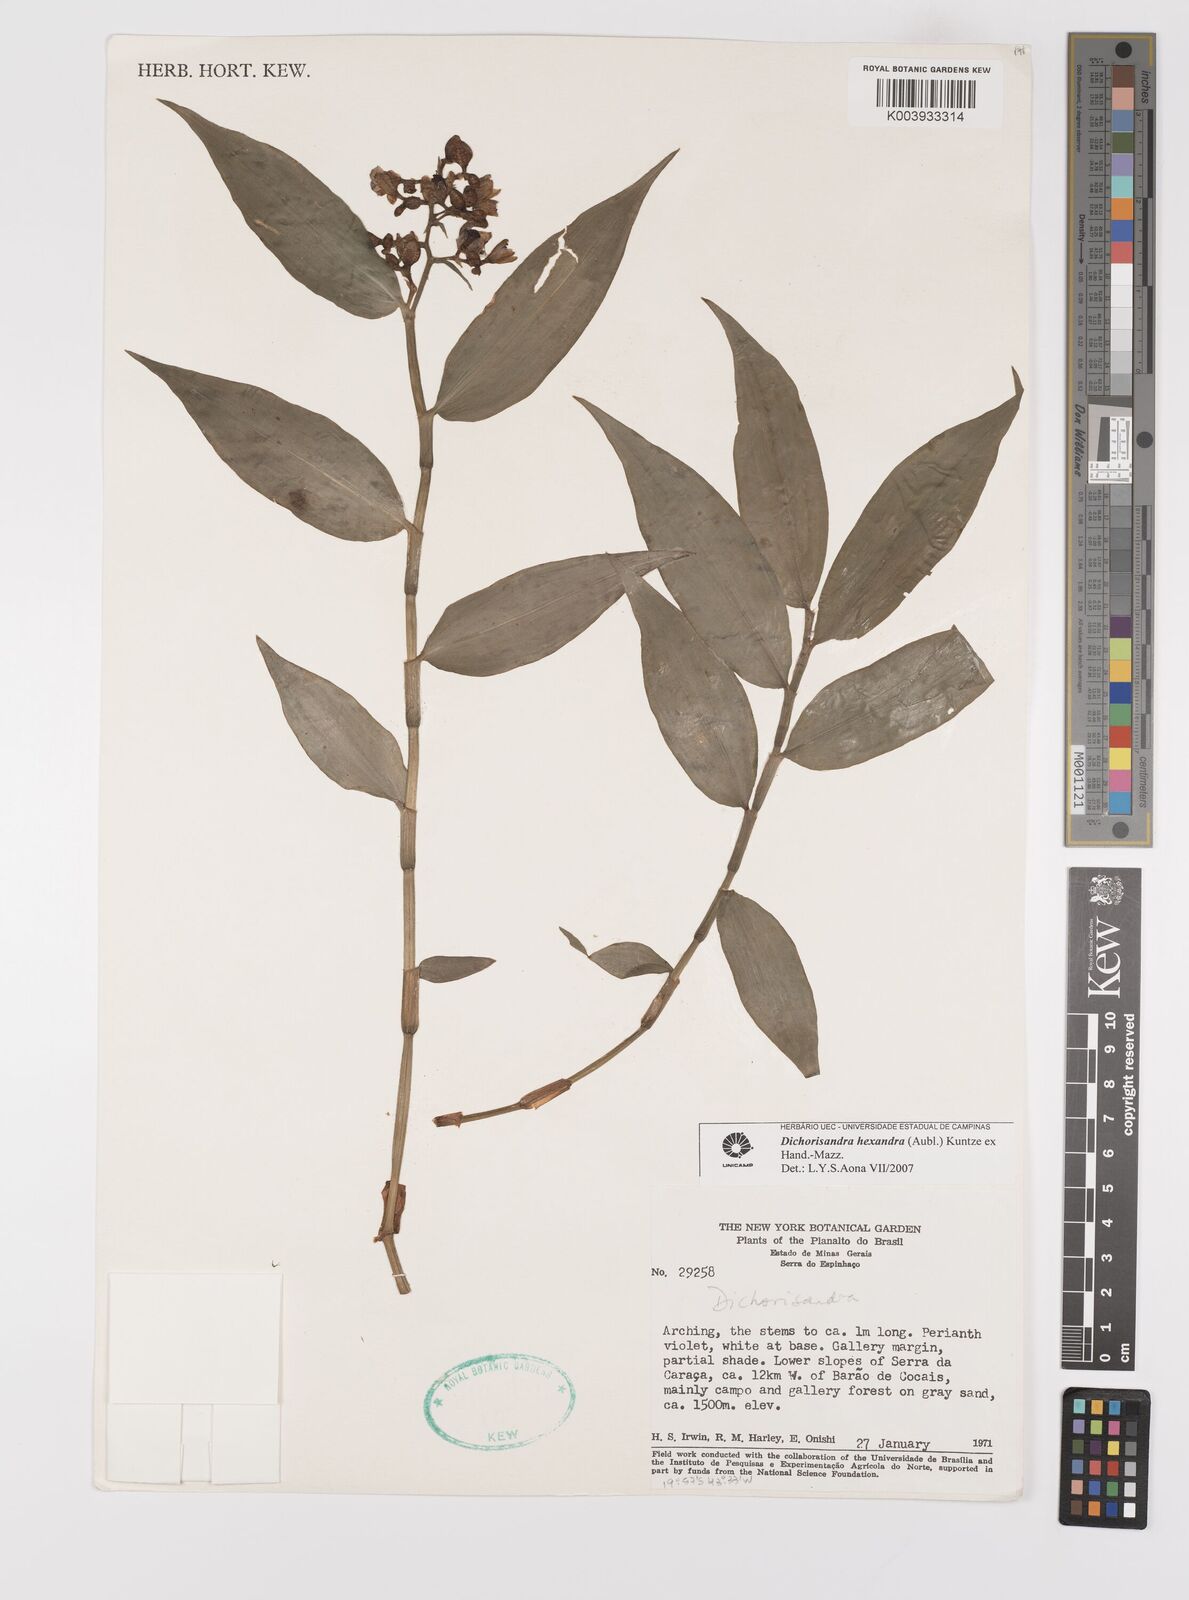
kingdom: Plantae
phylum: Tracheophyta
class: Liliopsida
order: Commelinales
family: Commelinaceae
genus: Dichorisandra
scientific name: Dichorisandra hexandra
